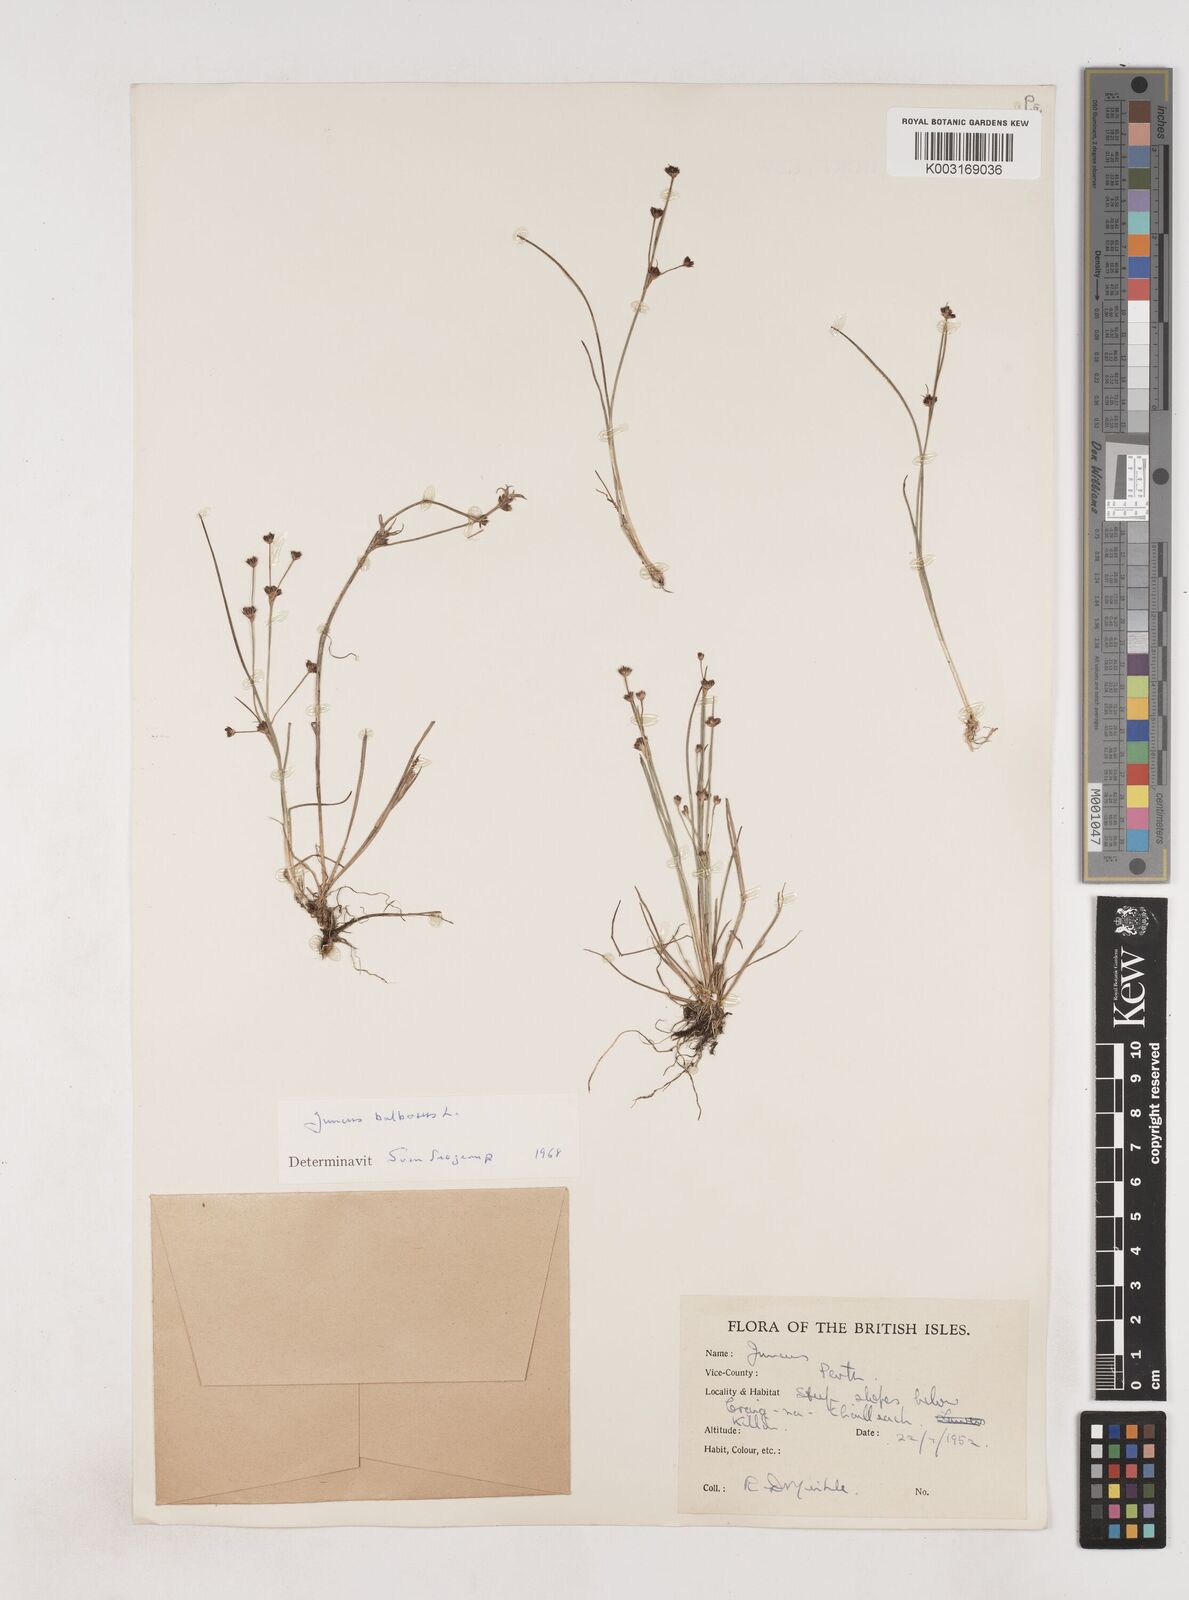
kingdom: Plantae
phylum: Tracheophyta
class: Liliopsida
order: Poales
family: Juncaceae
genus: Juncus
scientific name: Juncus bulbosus
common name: Bulbous rush
